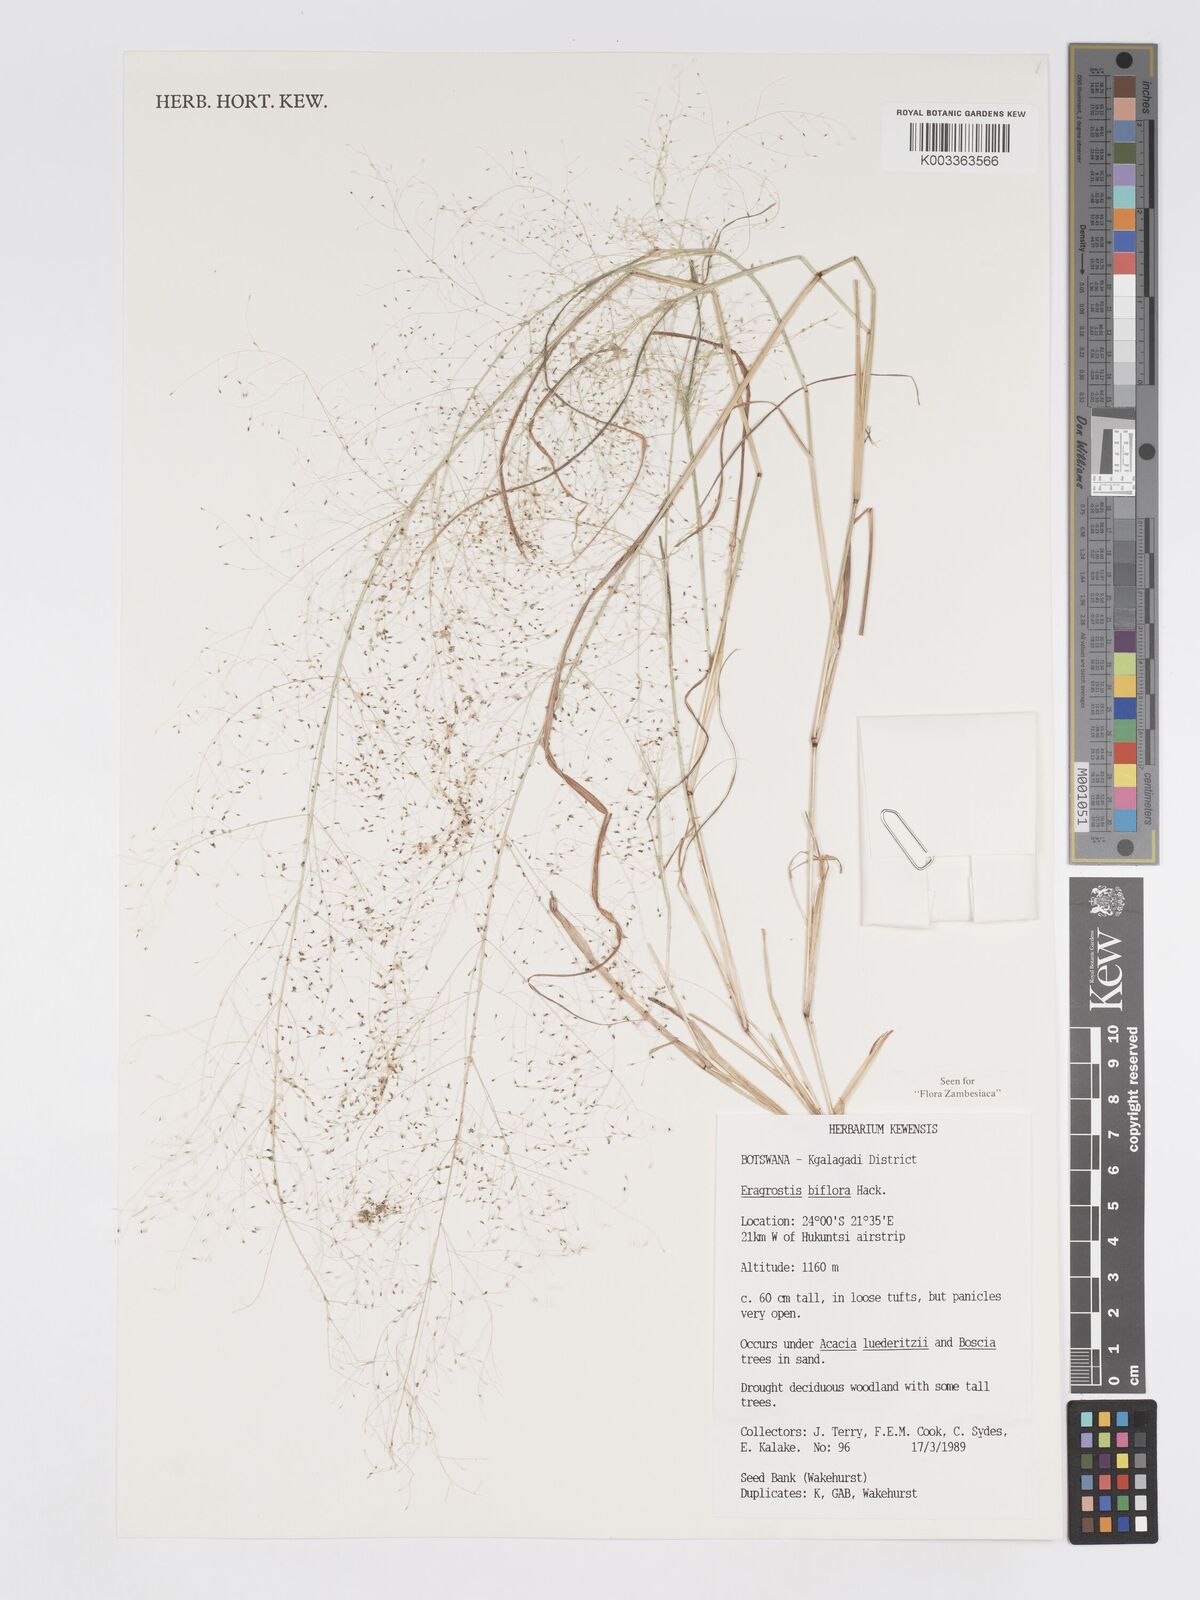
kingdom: Plantae
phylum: Tracheophyta
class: Liliopsida
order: Poales
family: Poaceae
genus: Eragrostis
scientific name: Eragrostis biflora
